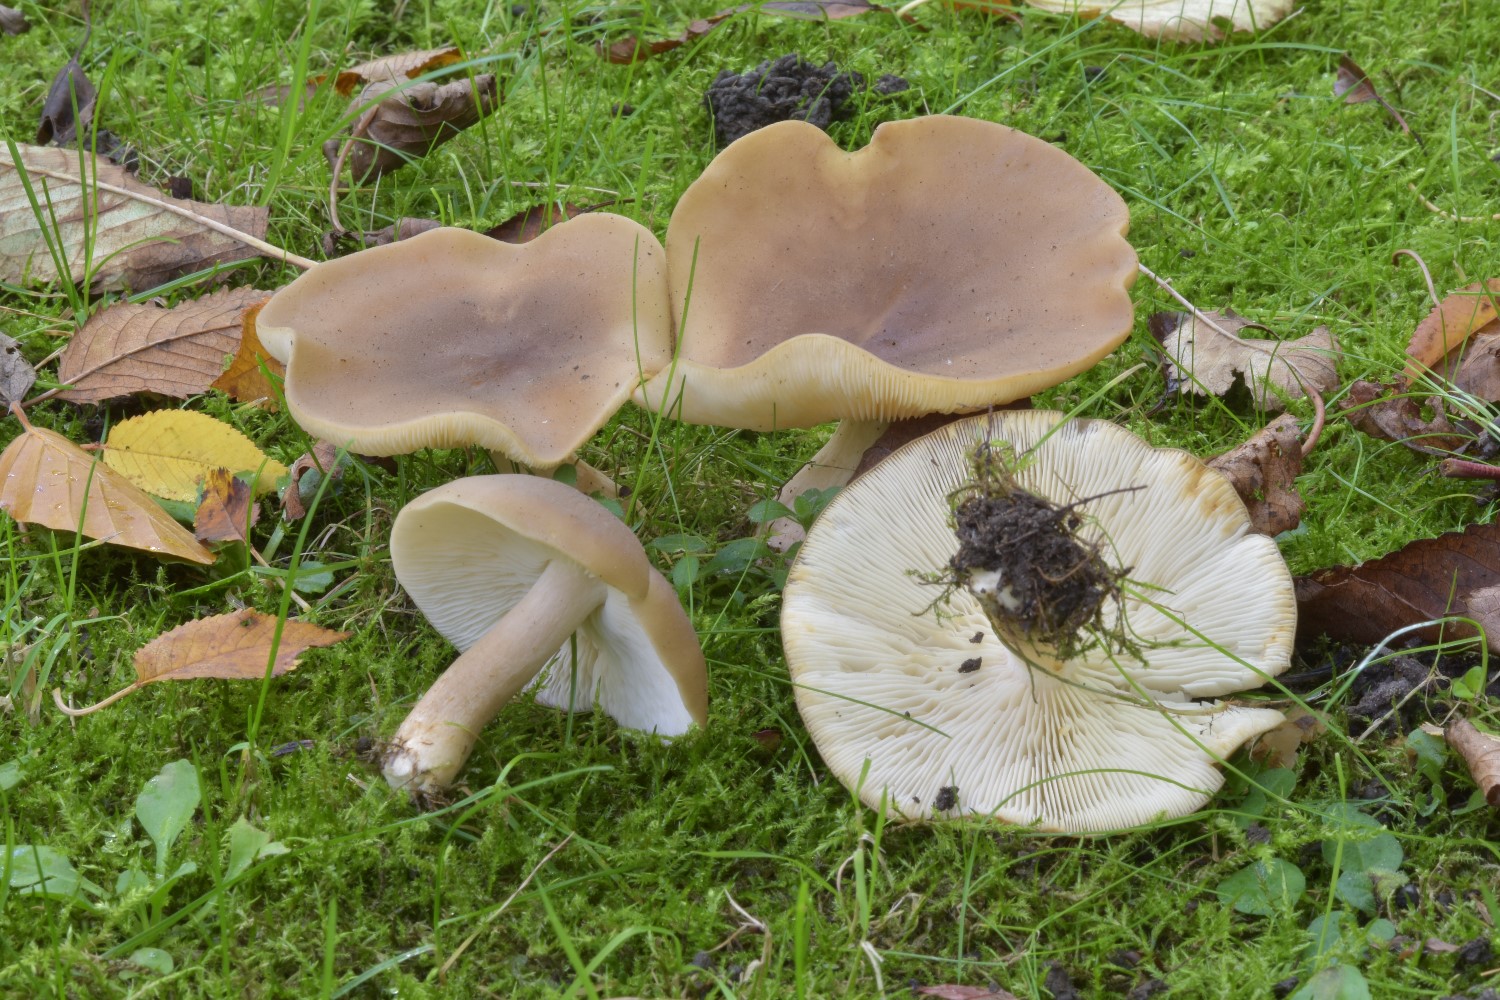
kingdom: Fungi
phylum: Basidiomycota
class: Agaricomycetes
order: Agaricales
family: Lyophyllaceae
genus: Lyophyllum
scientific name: Lyophyllum decastes
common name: Clustered domecap
